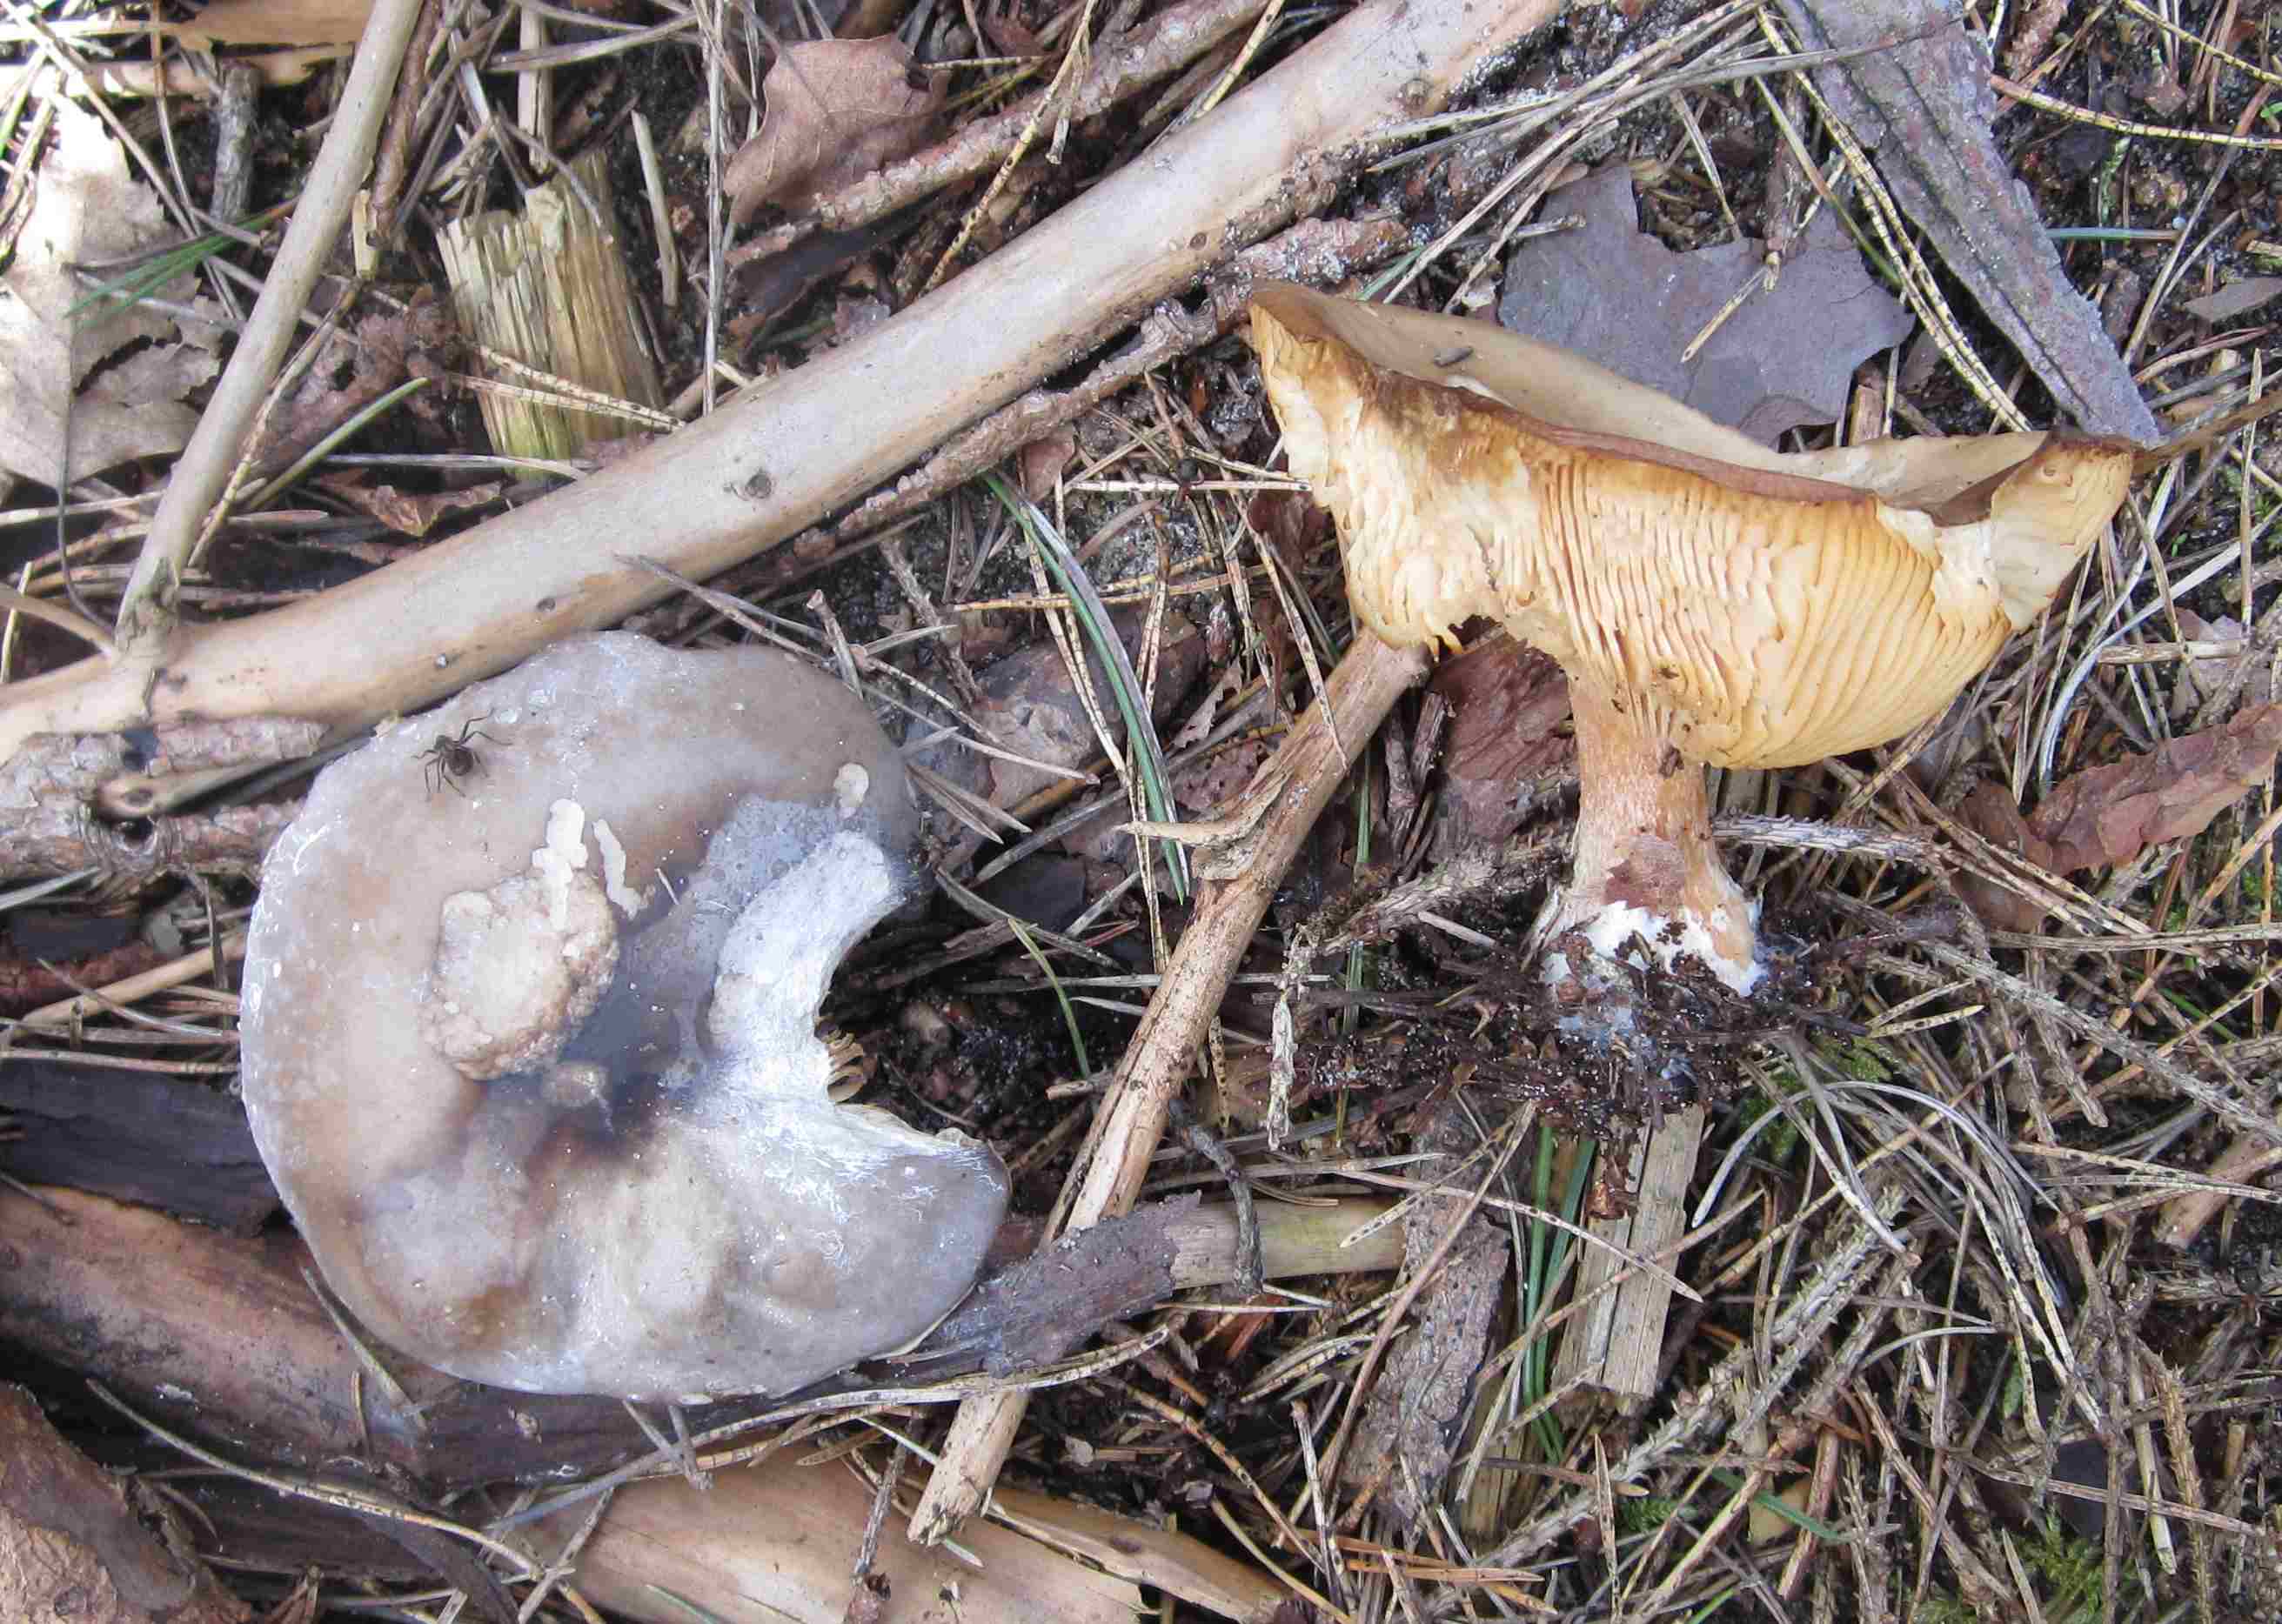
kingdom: Fungi
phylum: Basidiomycota
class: Agaricomycetes
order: Agaricales
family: Tricholomataceae
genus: Melanoleuca
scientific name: Melanoleuca cognata
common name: gyldengrå munkehat
